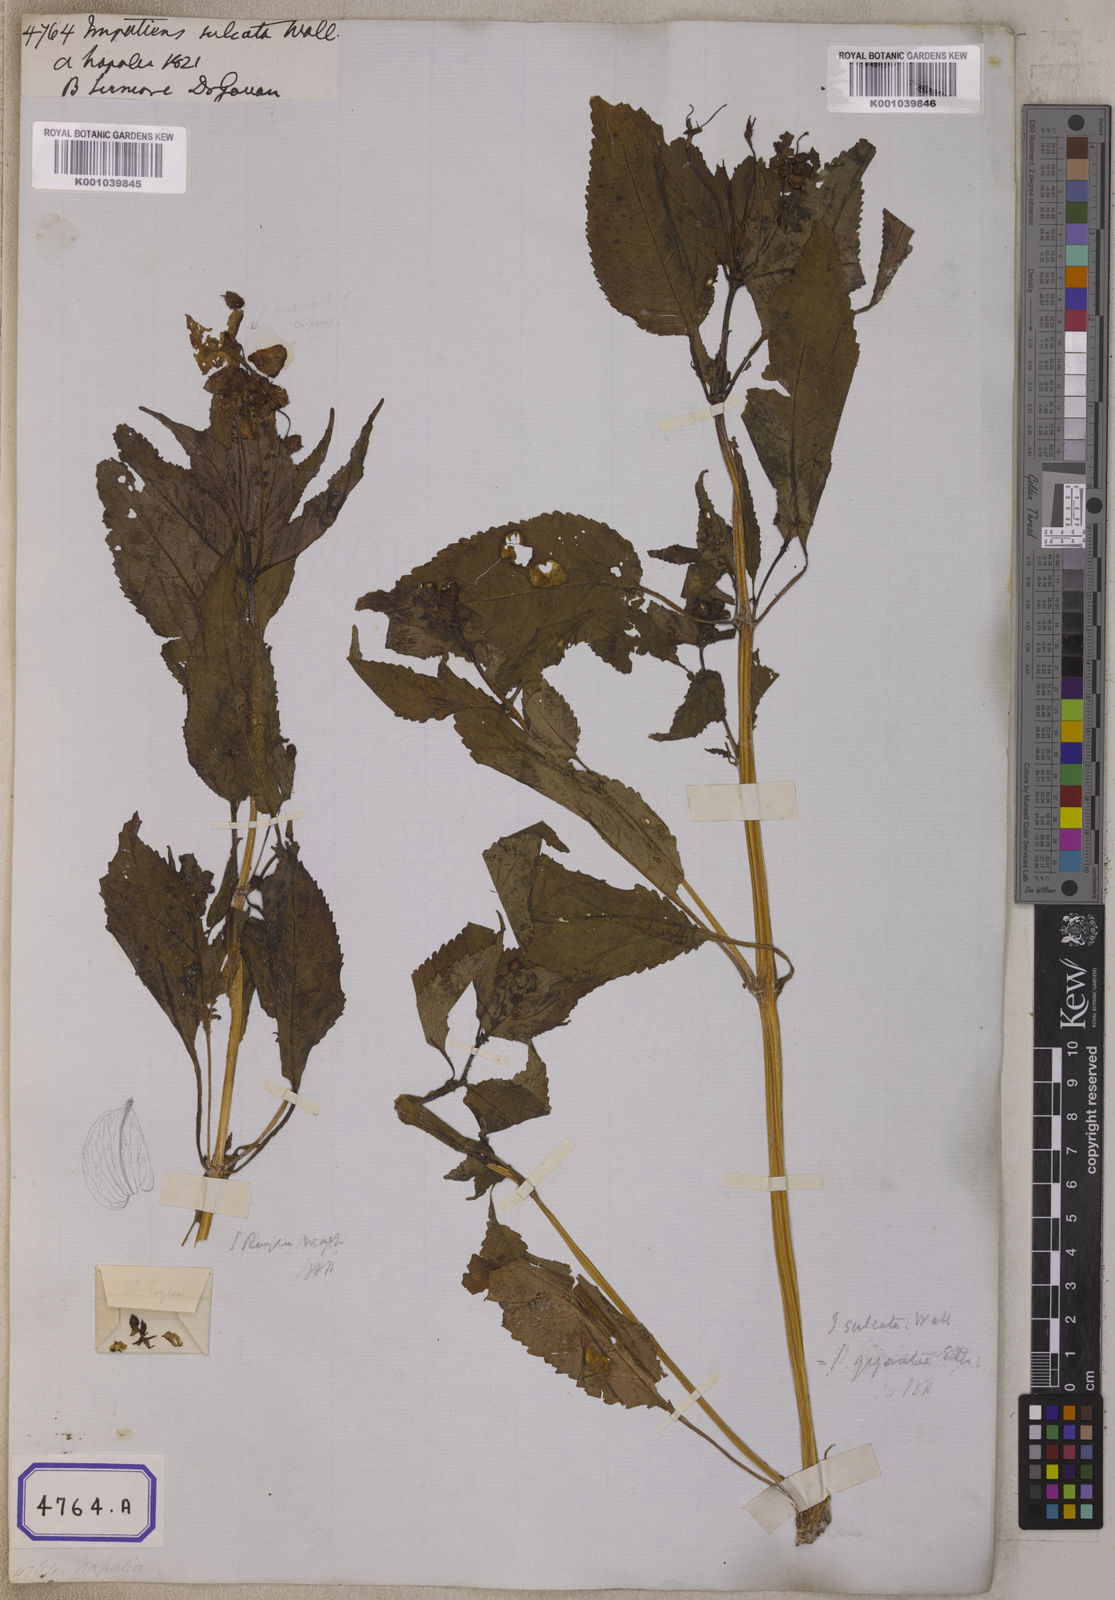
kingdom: Plantae
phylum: Tracheophyta
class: Magnoliopsida
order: Ericales
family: Balsaminaceae
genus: Impatiens
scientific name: Impatiens sulcata
